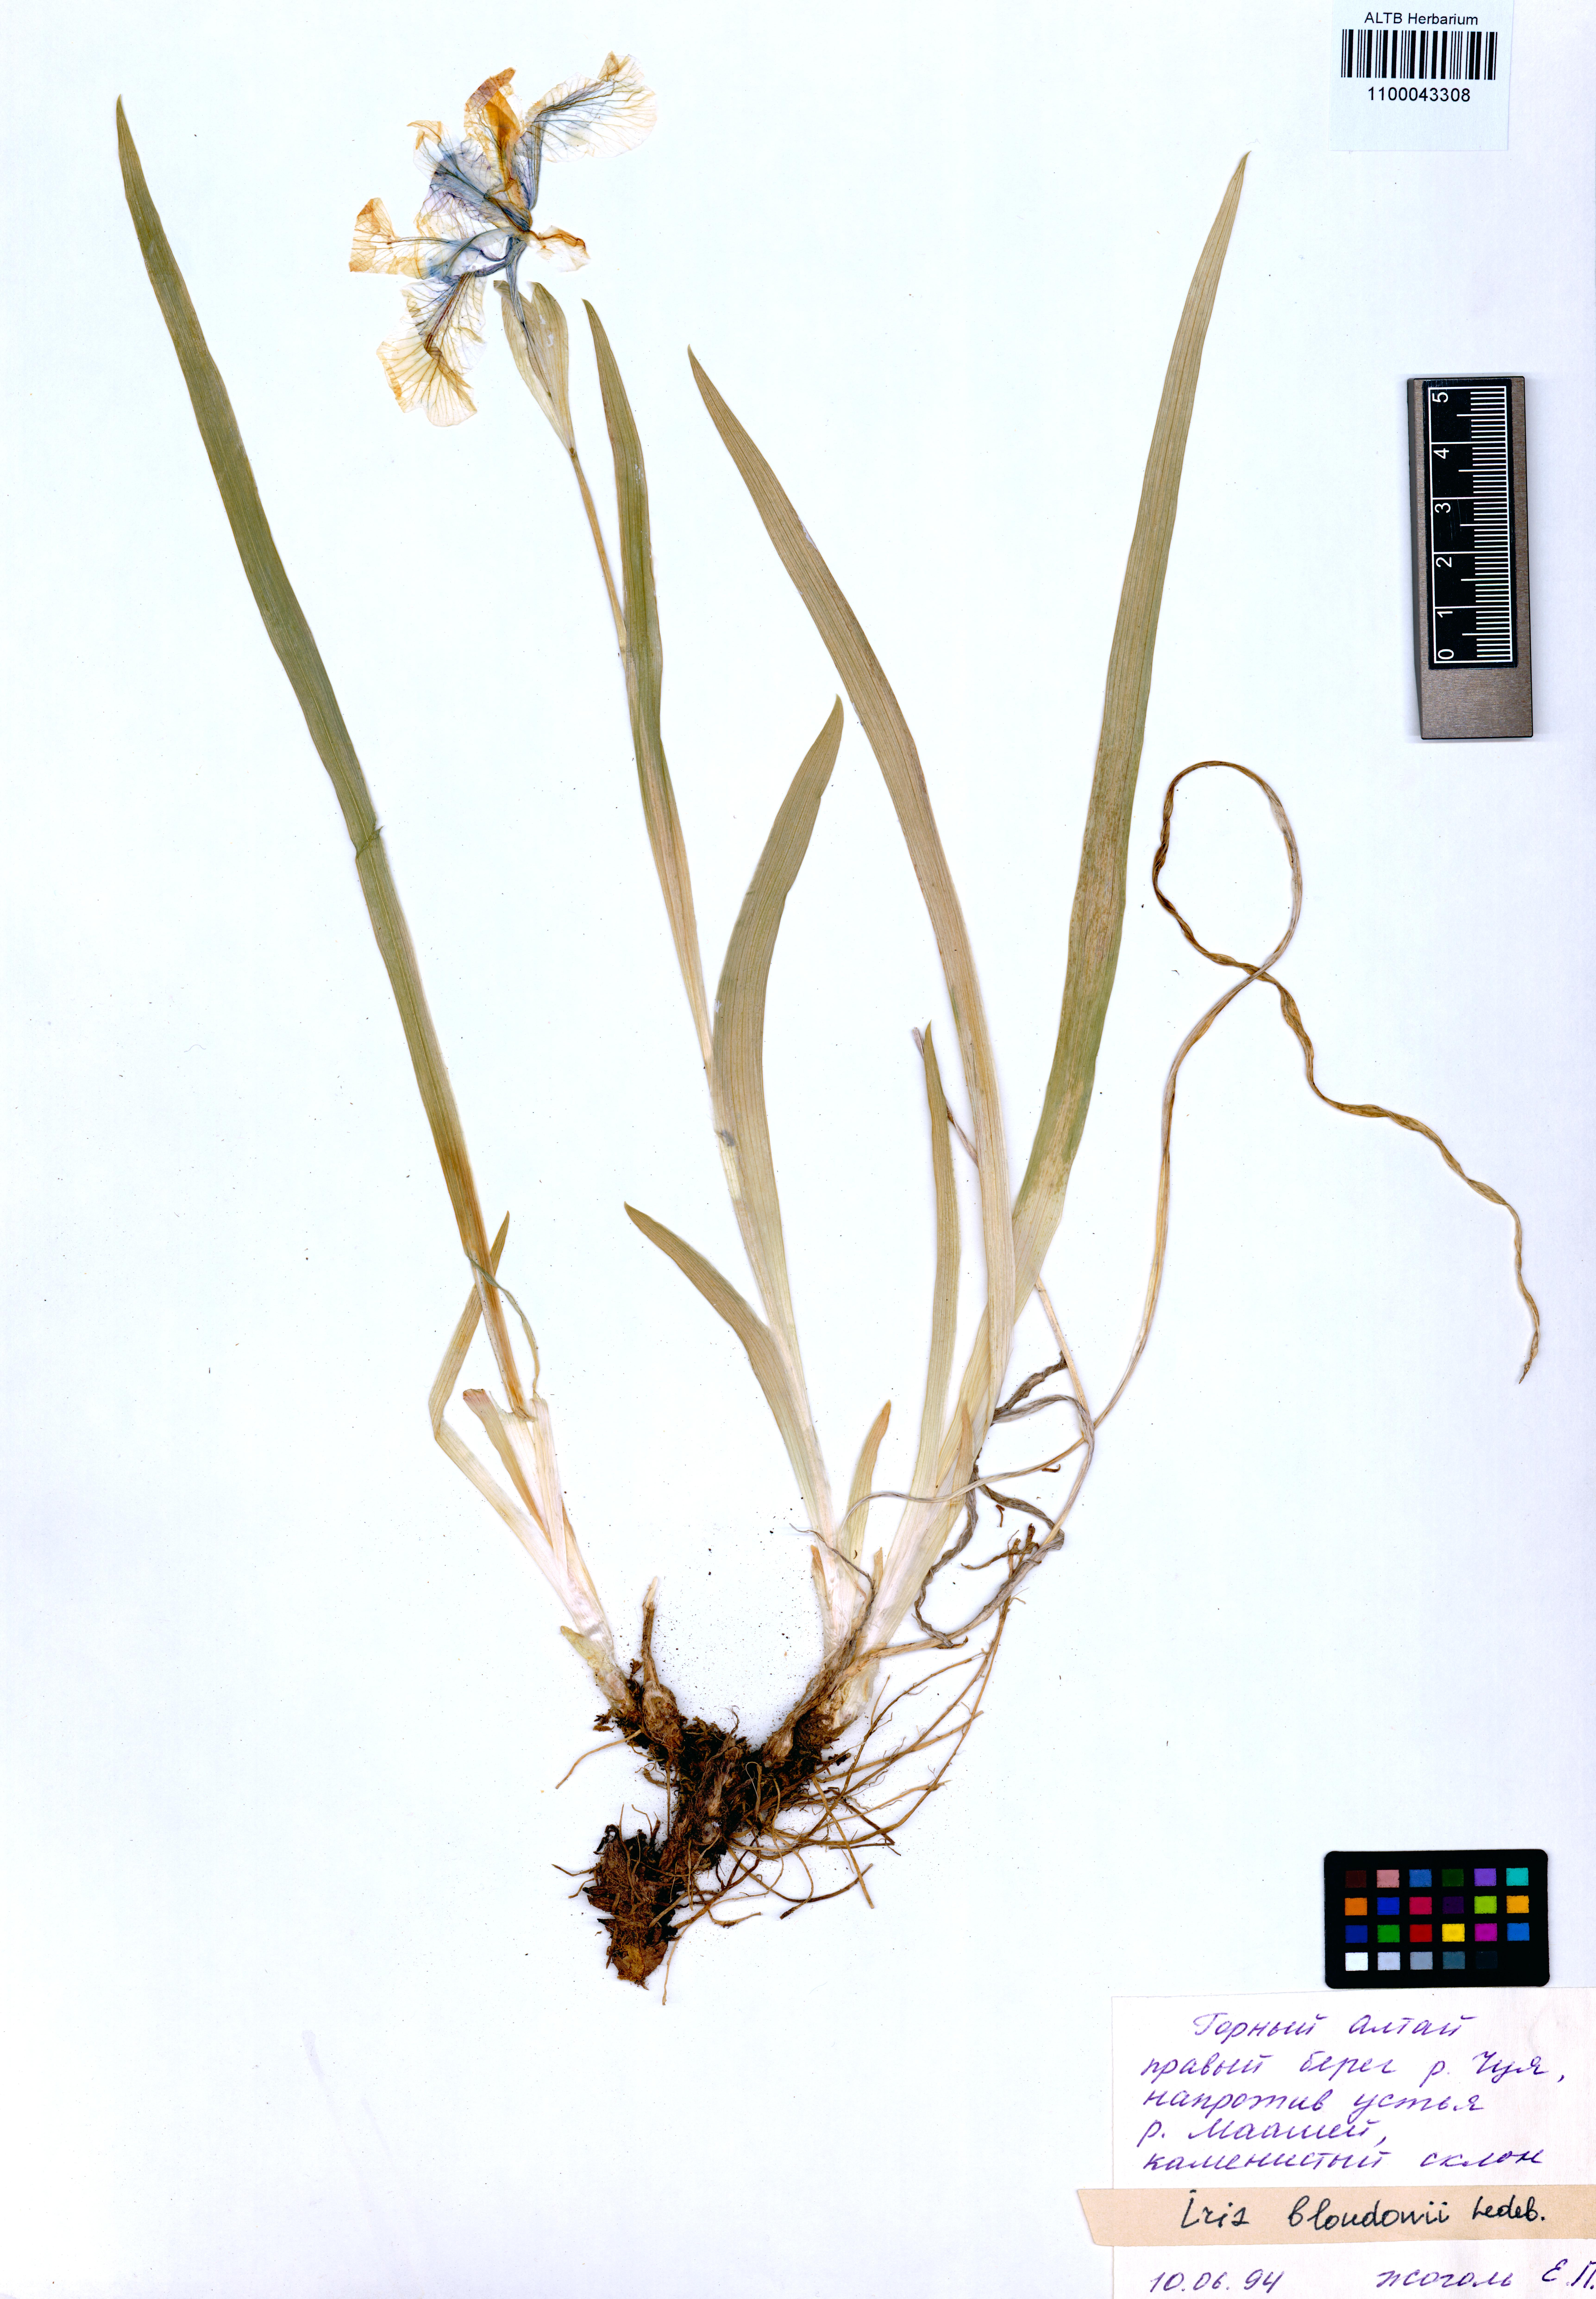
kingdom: Plantae
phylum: Tracheophyta
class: Liliopsida
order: Asparagales
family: Iridaceae
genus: Iris
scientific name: Iris bloudowii
